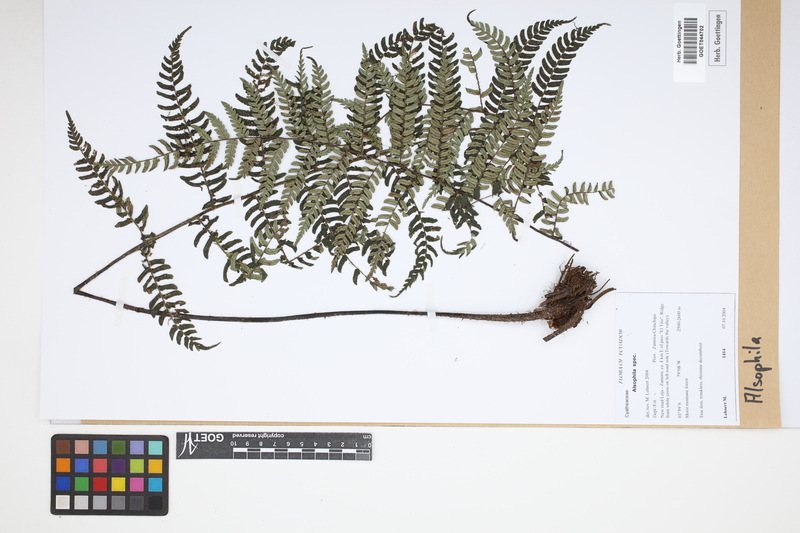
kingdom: Plantae
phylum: Tracheophyta
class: Polypodiopsida
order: Cyatheales
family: Cyatheaceae
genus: Alsophila
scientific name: Alsophila
